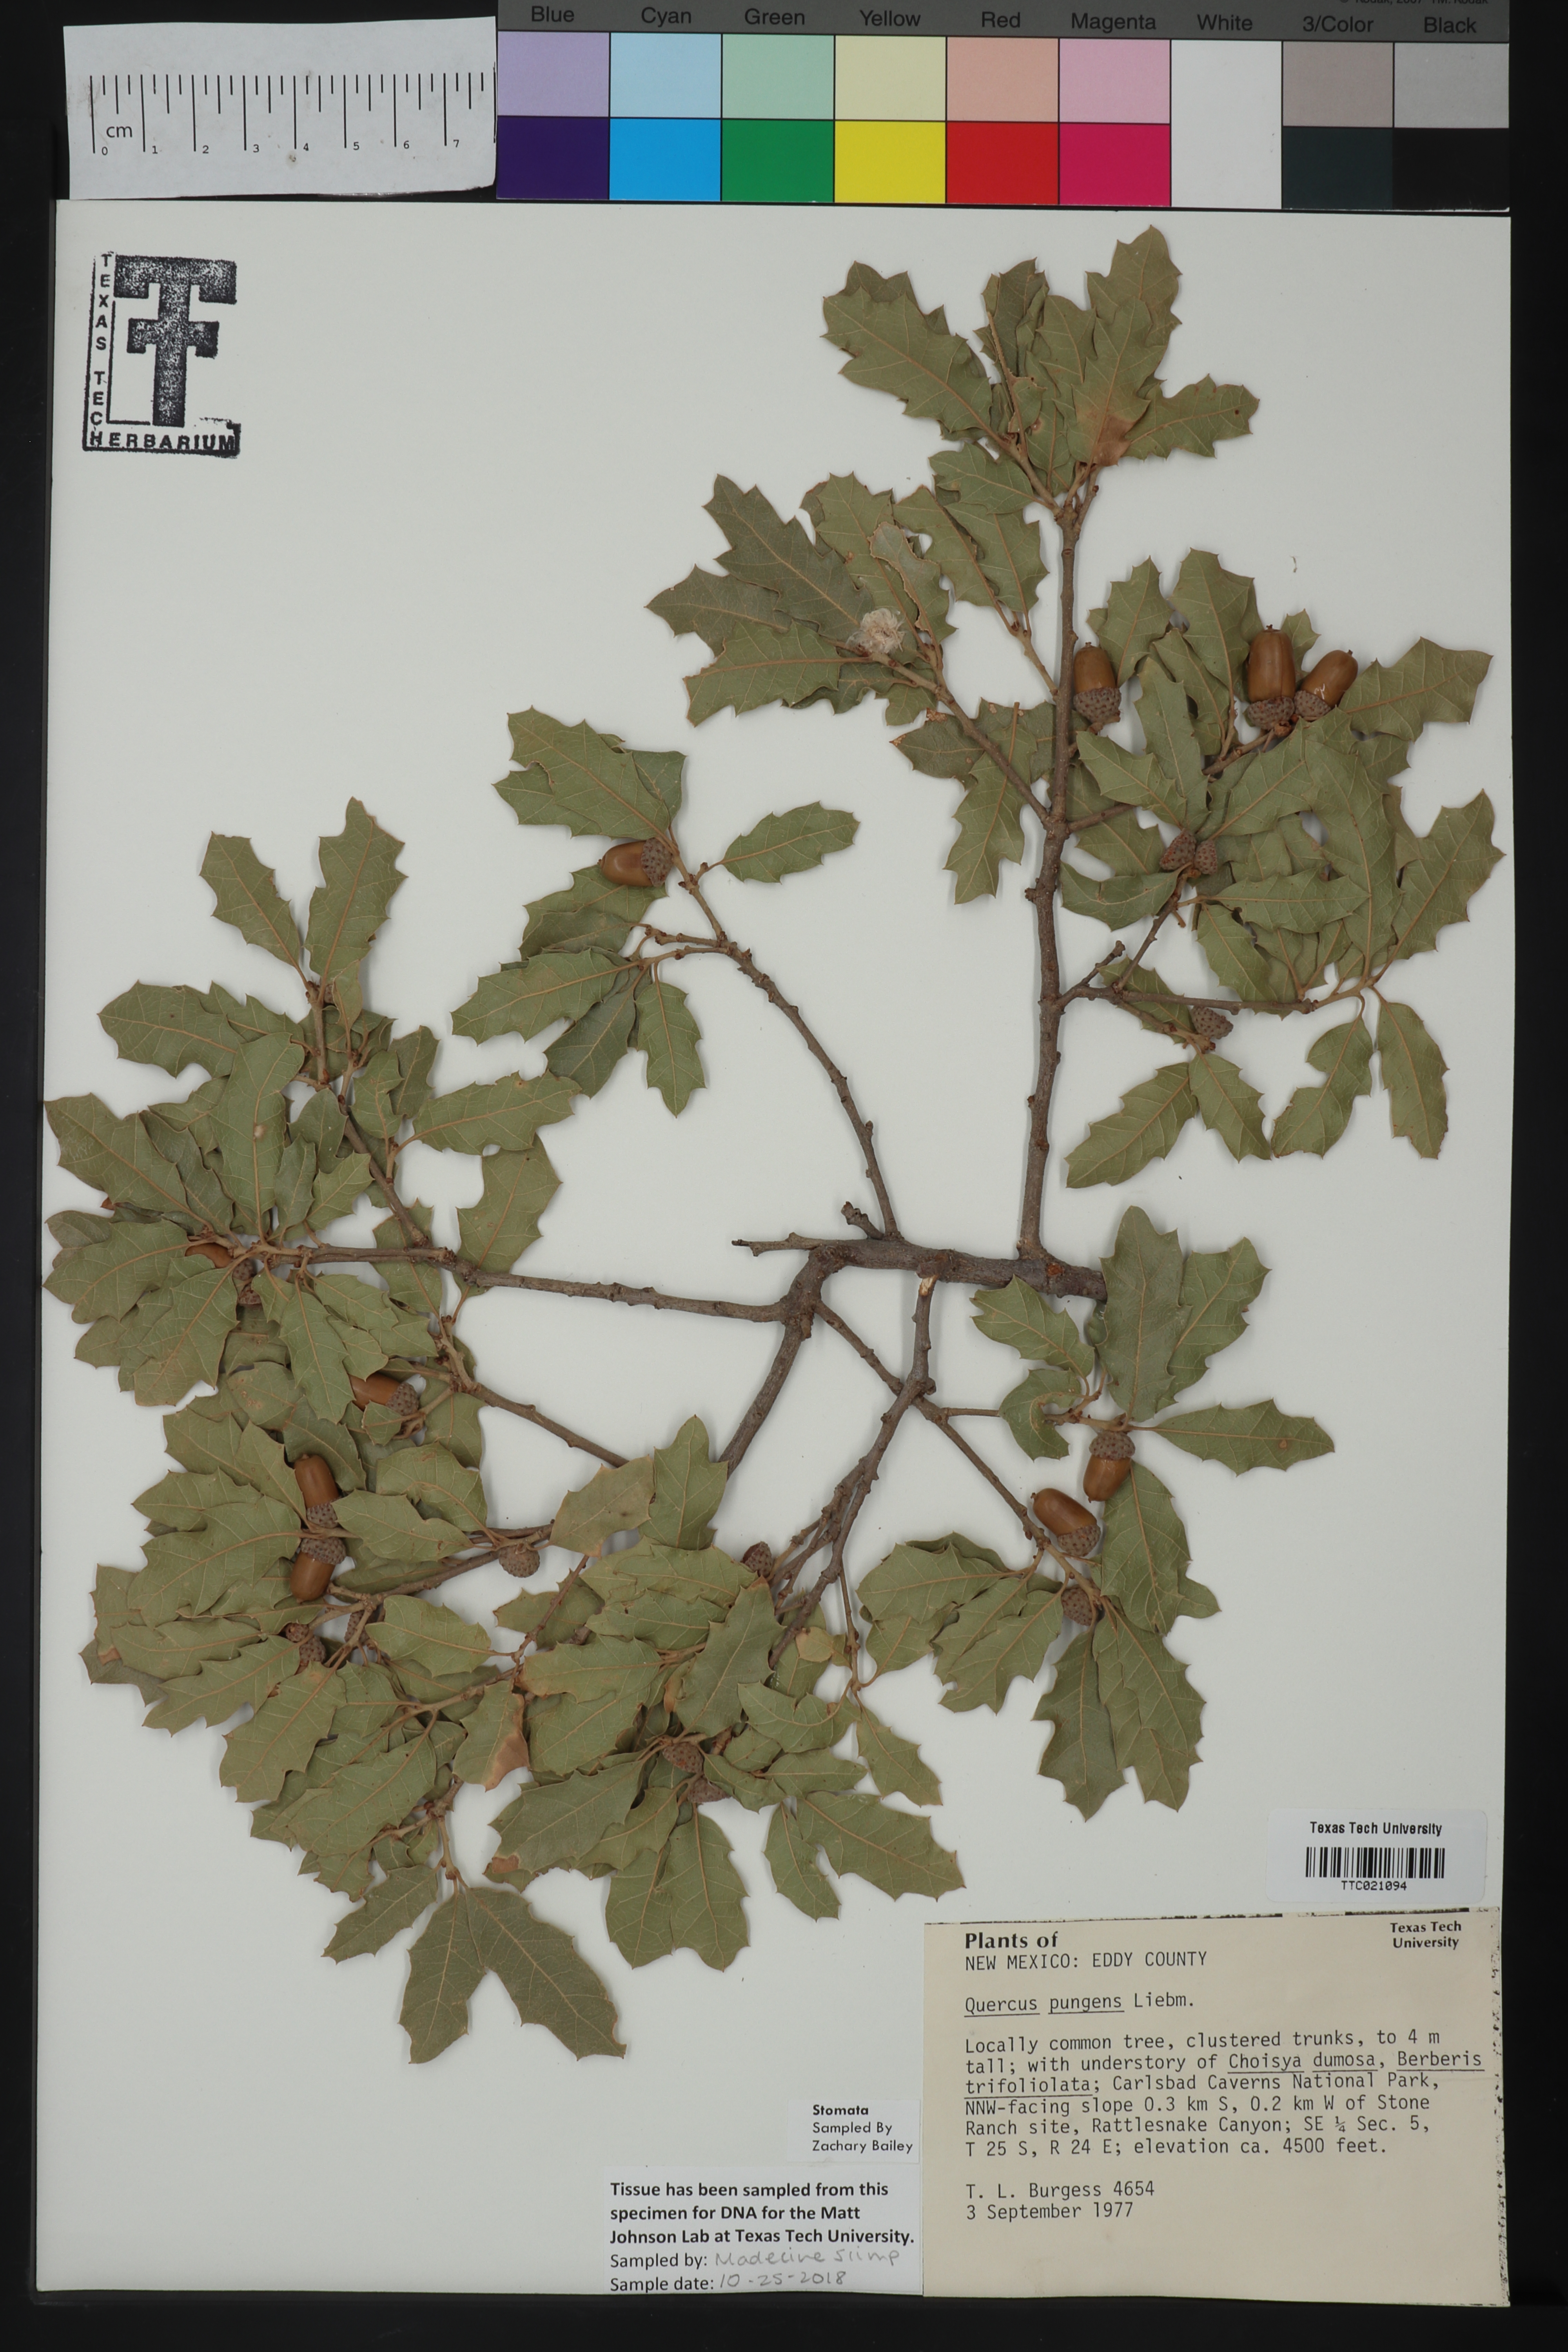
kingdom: Plantae
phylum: Tracheophyta
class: Magnoliopsida
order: Fagales
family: Fagaceae
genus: Quercus
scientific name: Quercus pungens
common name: Pungent oak
